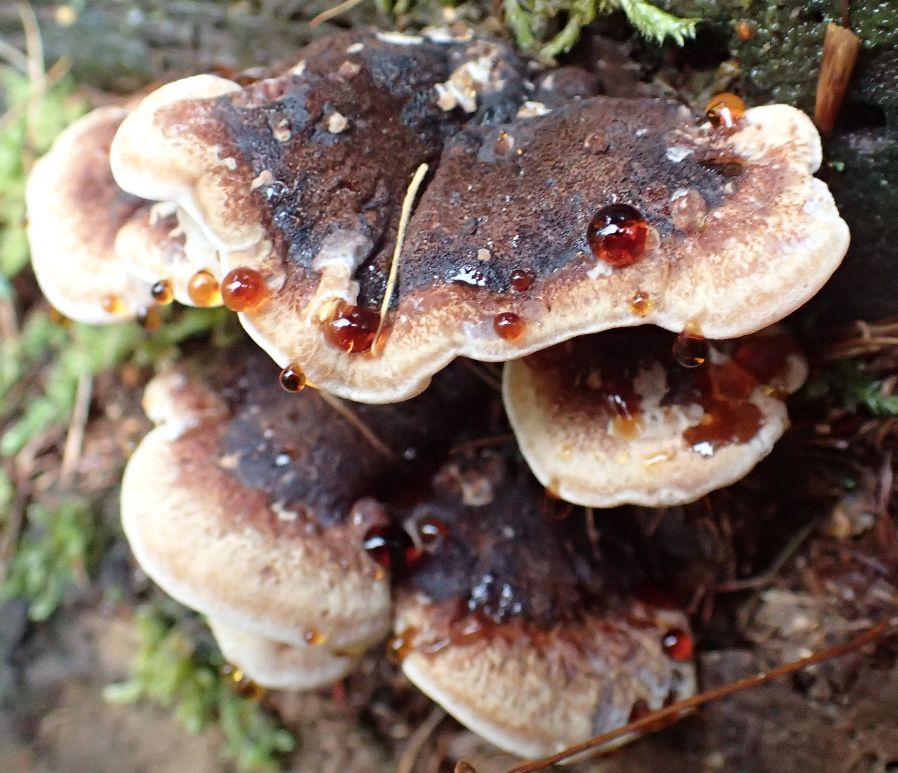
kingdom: Fungi
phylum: Basidiomycota
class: Agaricomycetes
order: Polyporales
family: Ischnodermataceae
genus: Ischnoderma
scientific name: Ischnoderma benzoinum
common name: gran-tjæreporesvamp
